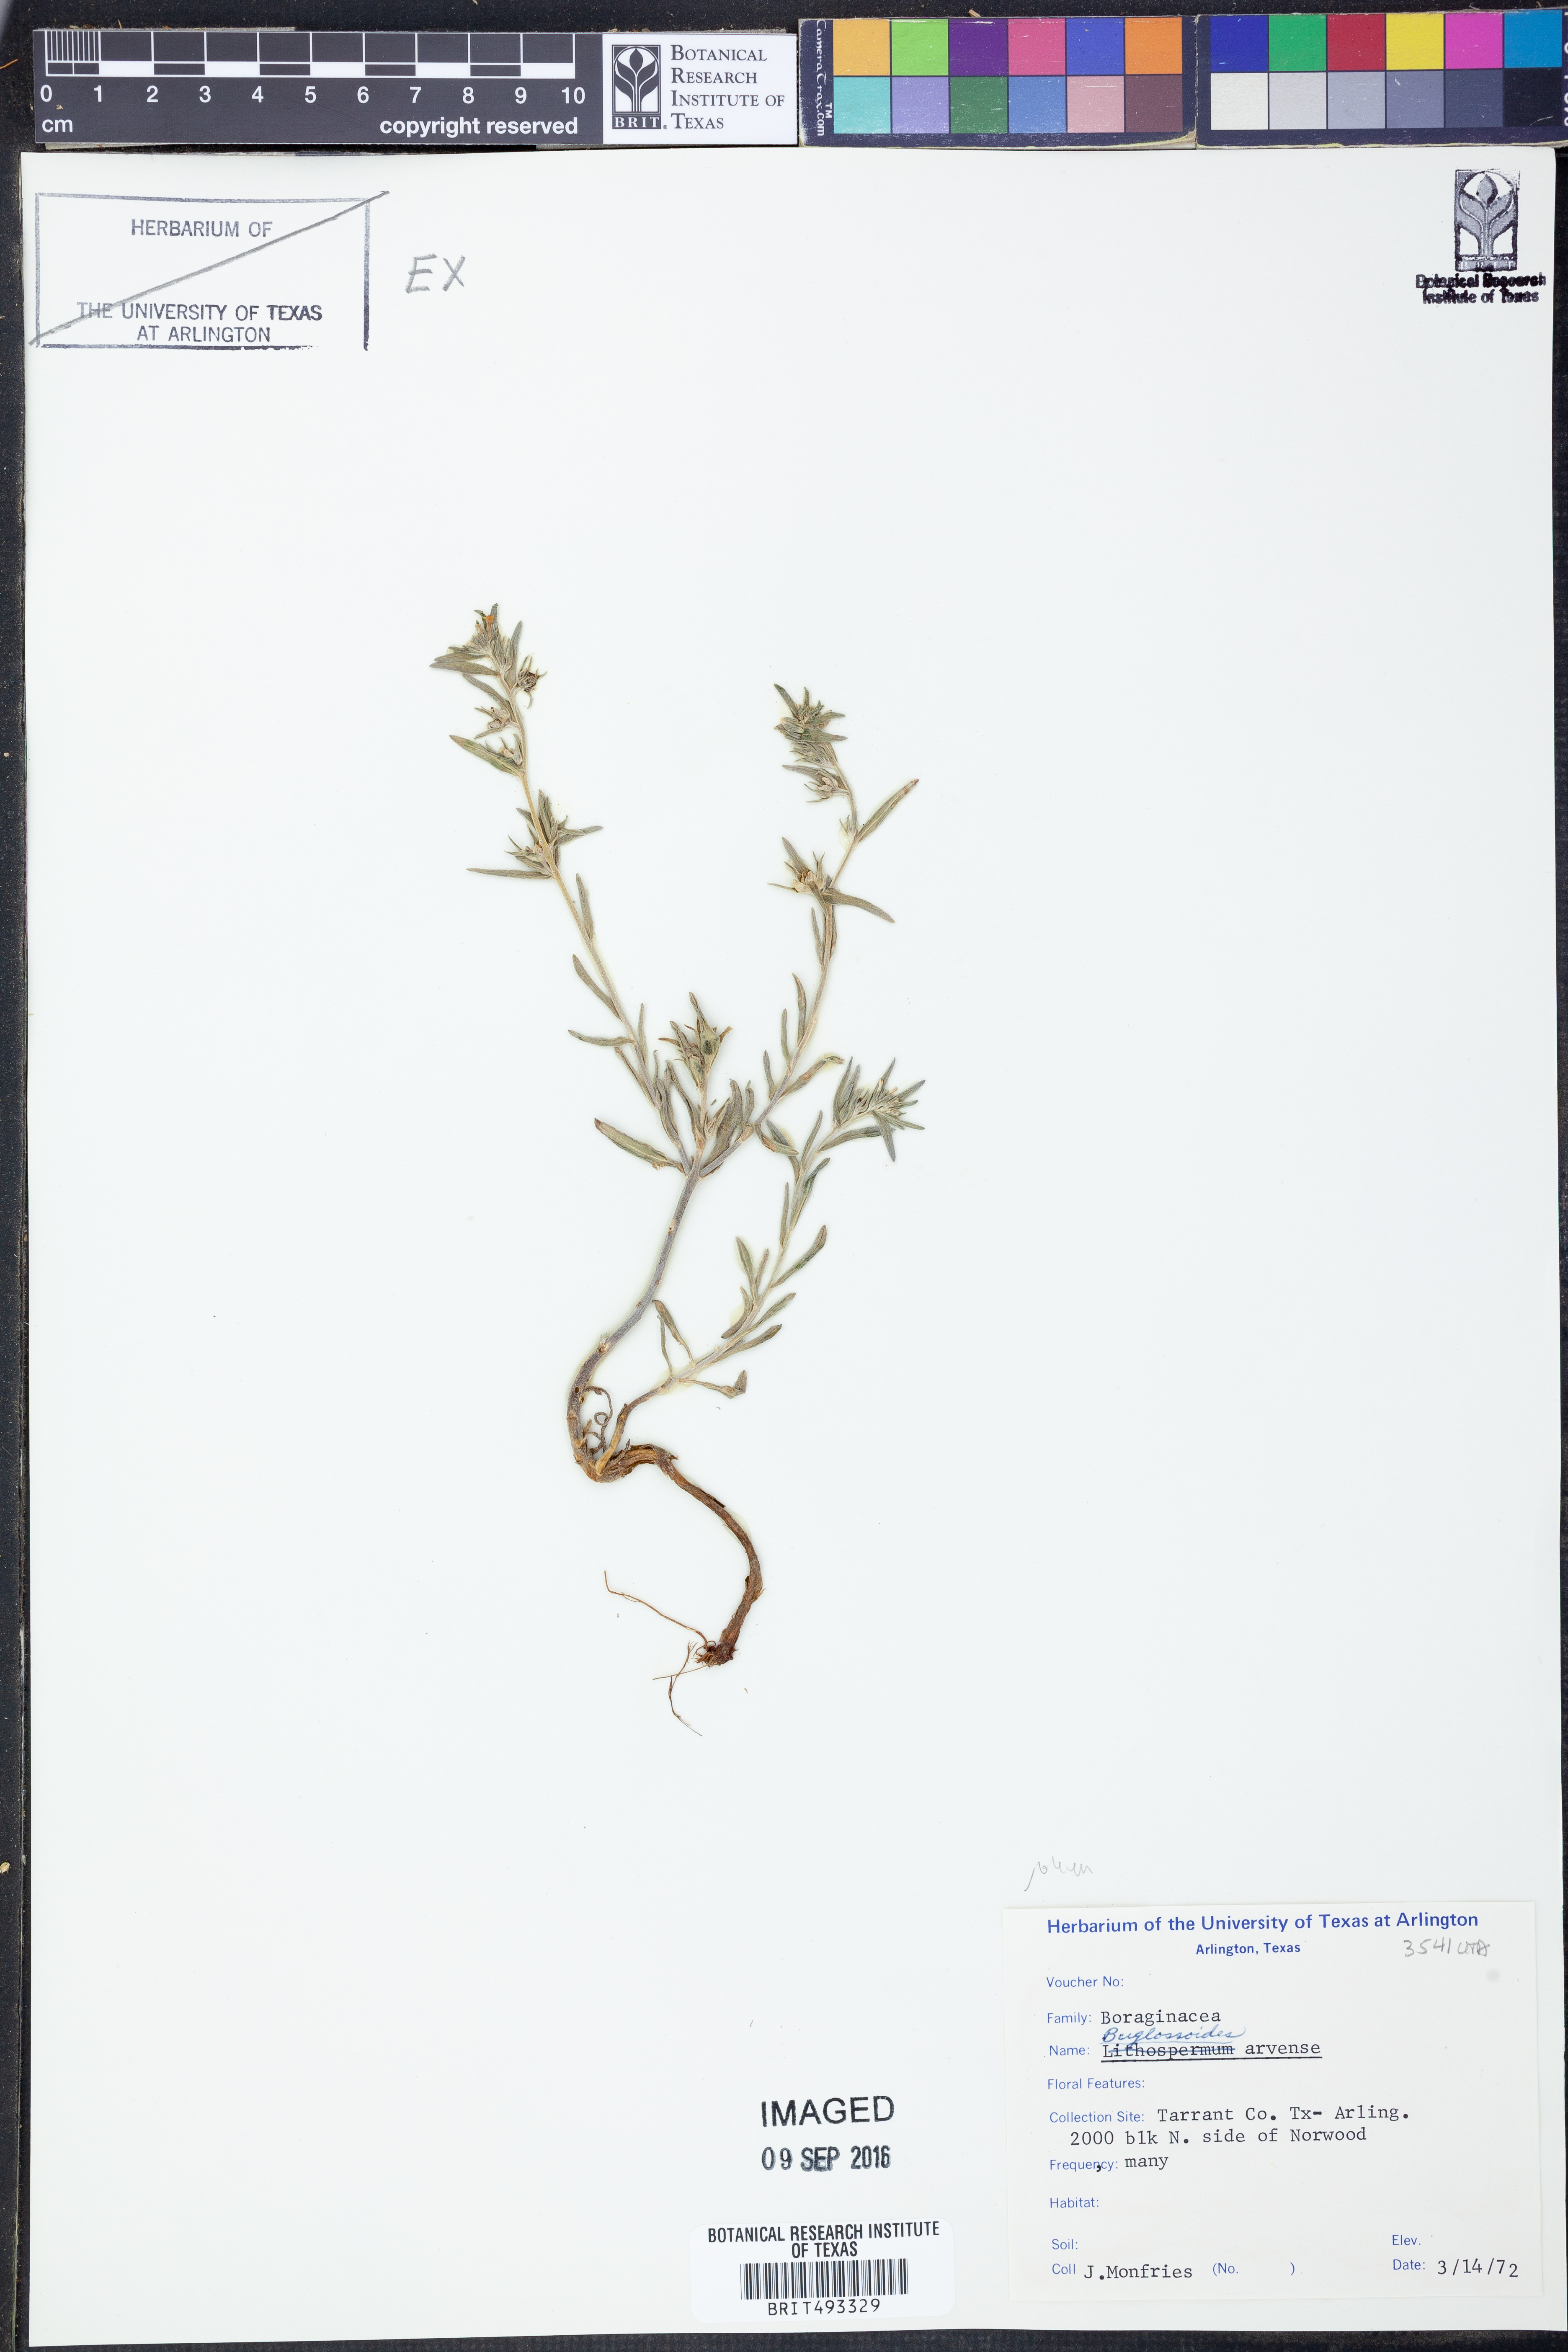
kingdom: Plantae
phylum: Tracheophyta
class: Magnoliopsida
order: Boraginales
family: Boraginaceae
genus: Buglossoides
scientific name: Buglossoides arvensis
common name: Corn gromwell
